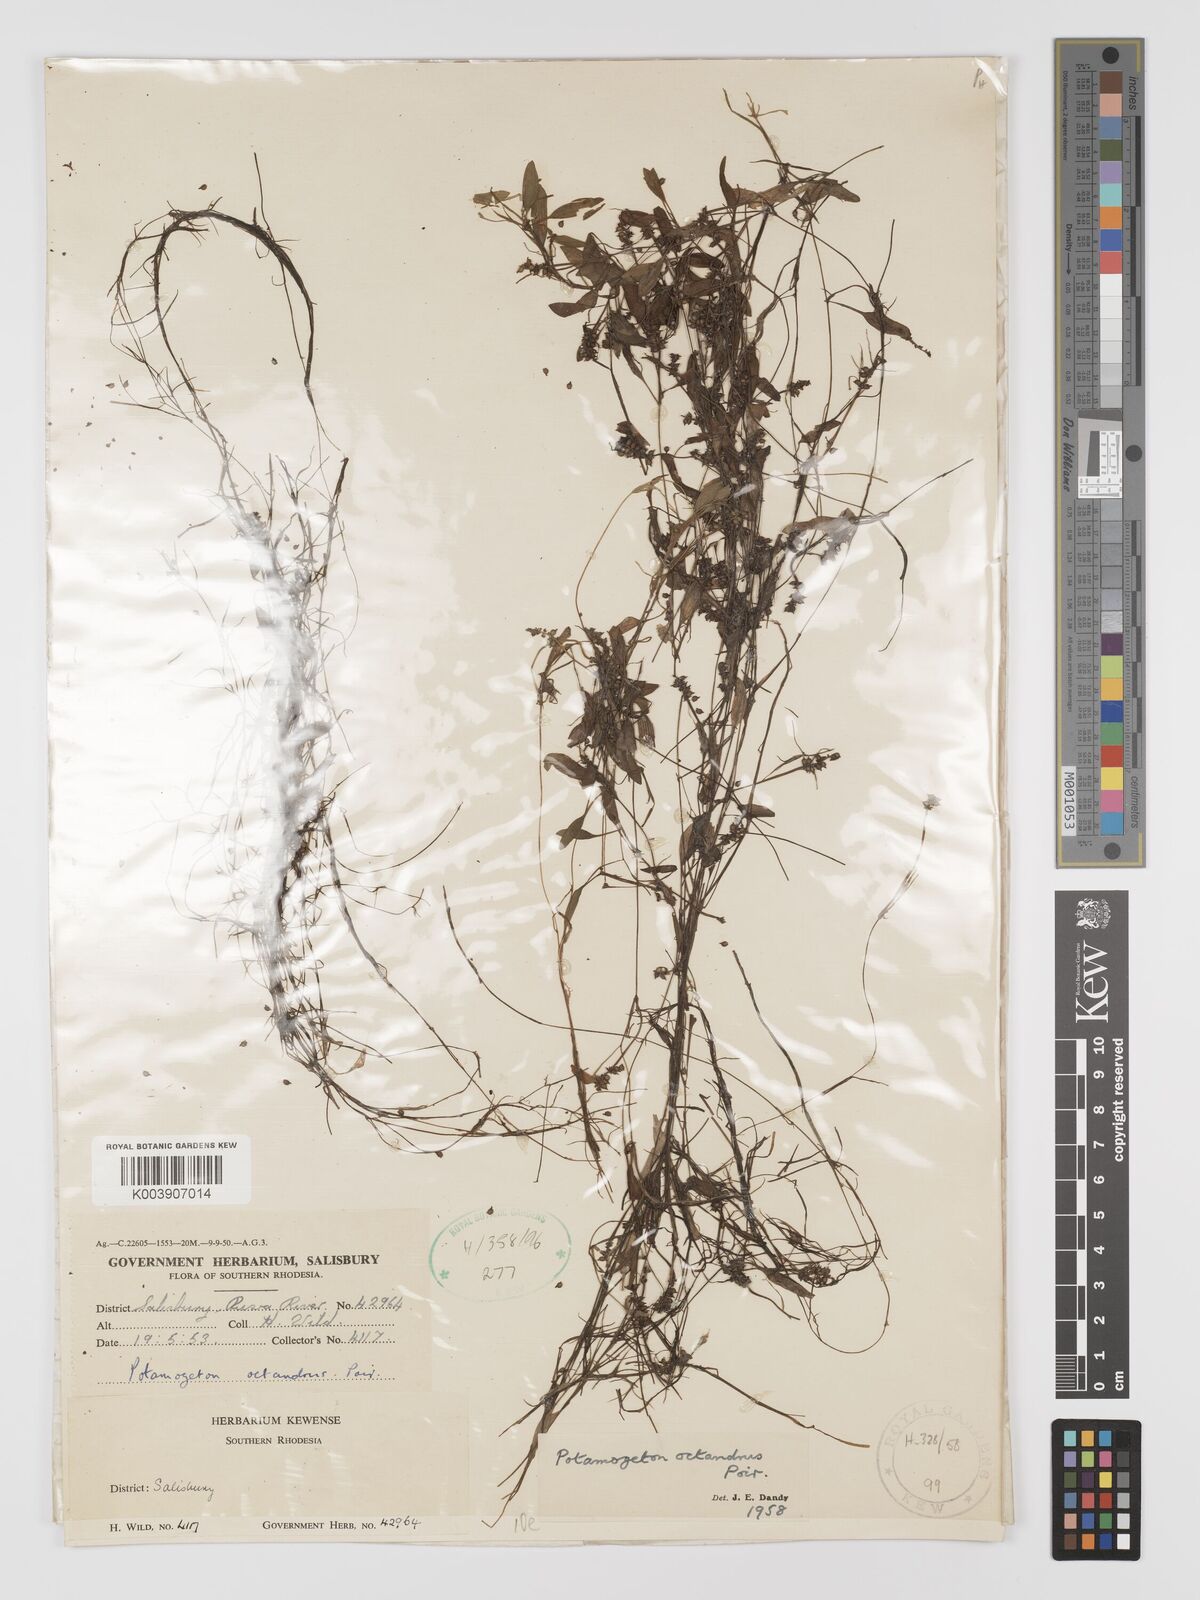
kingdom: Plantae
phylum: Tracheophyta
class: Liliopsida
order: Alismatales
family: Potamogetonaceae
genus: Potamogeton
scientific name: Potamogeton octandrus
